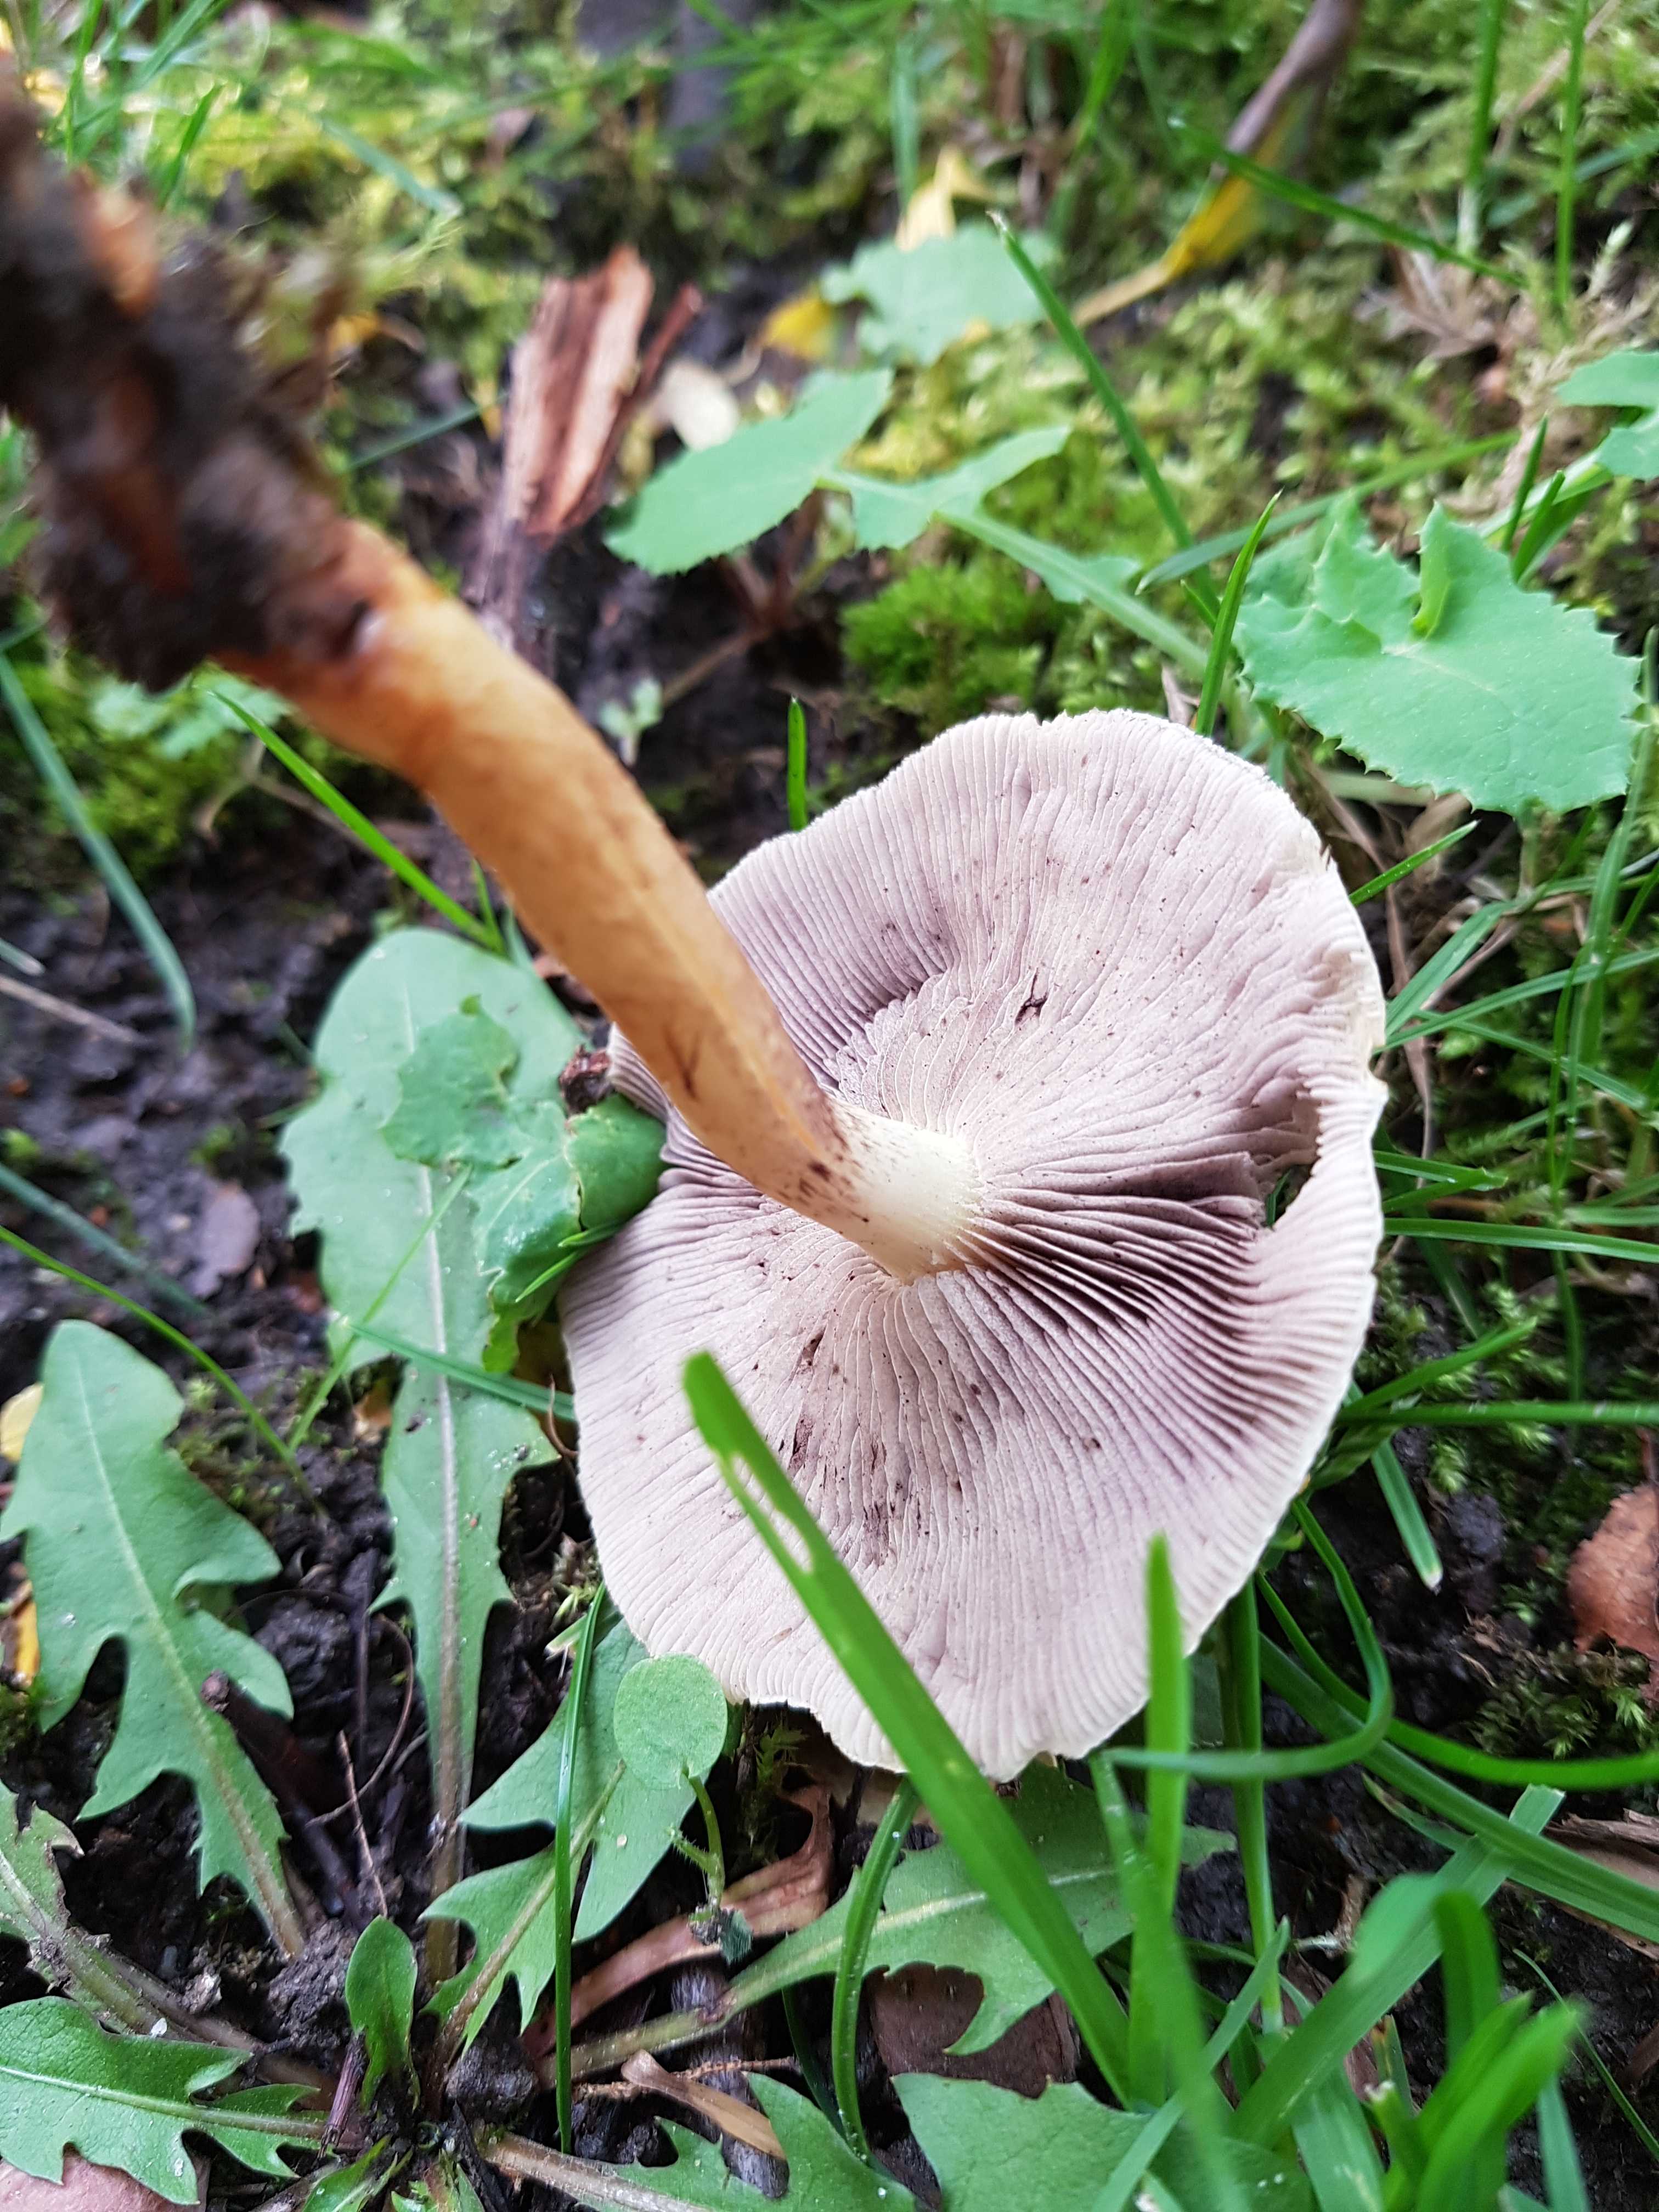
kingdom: Fungi
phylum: Basidiomycota
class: Agaricomycetes
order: Agaricales
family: Strophariaceae
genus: Hypholoma
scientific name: Hypholoma fasciculare
